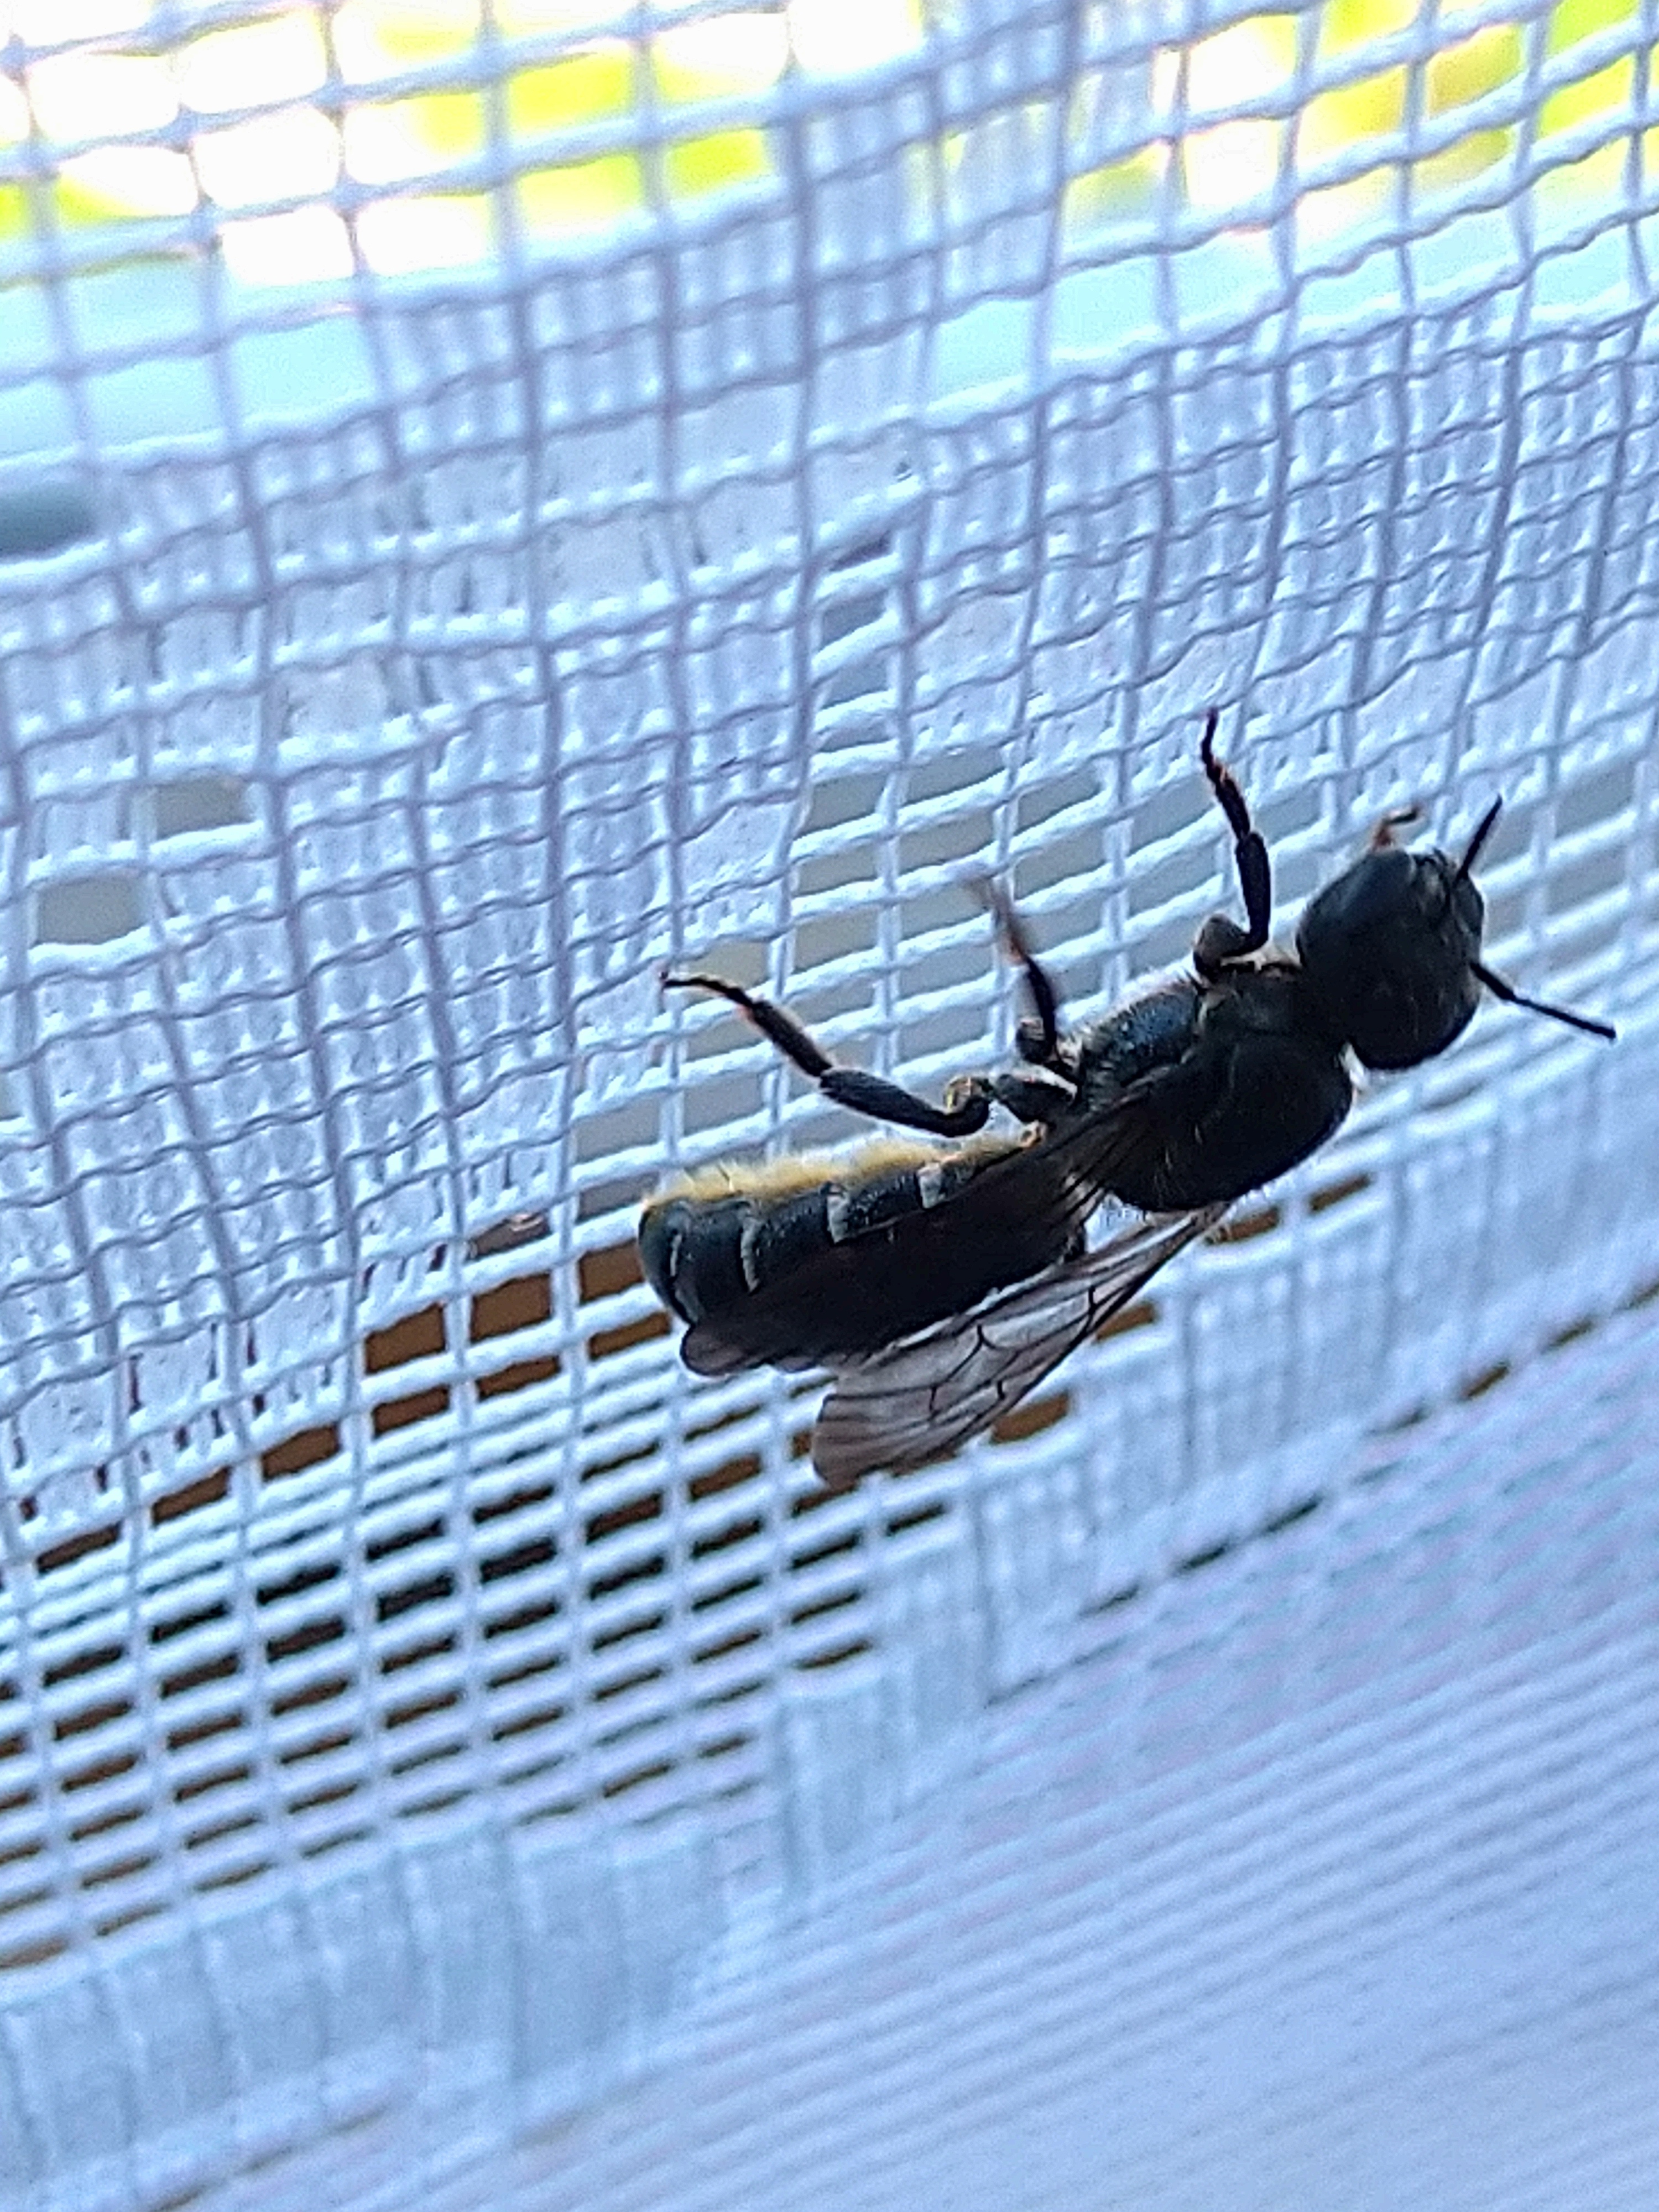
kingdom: Animalia
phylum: Arthropoda
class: Insecta
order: Hymenoptera
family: Megachilidae
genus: Chelostoma
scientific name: Chelostoma
